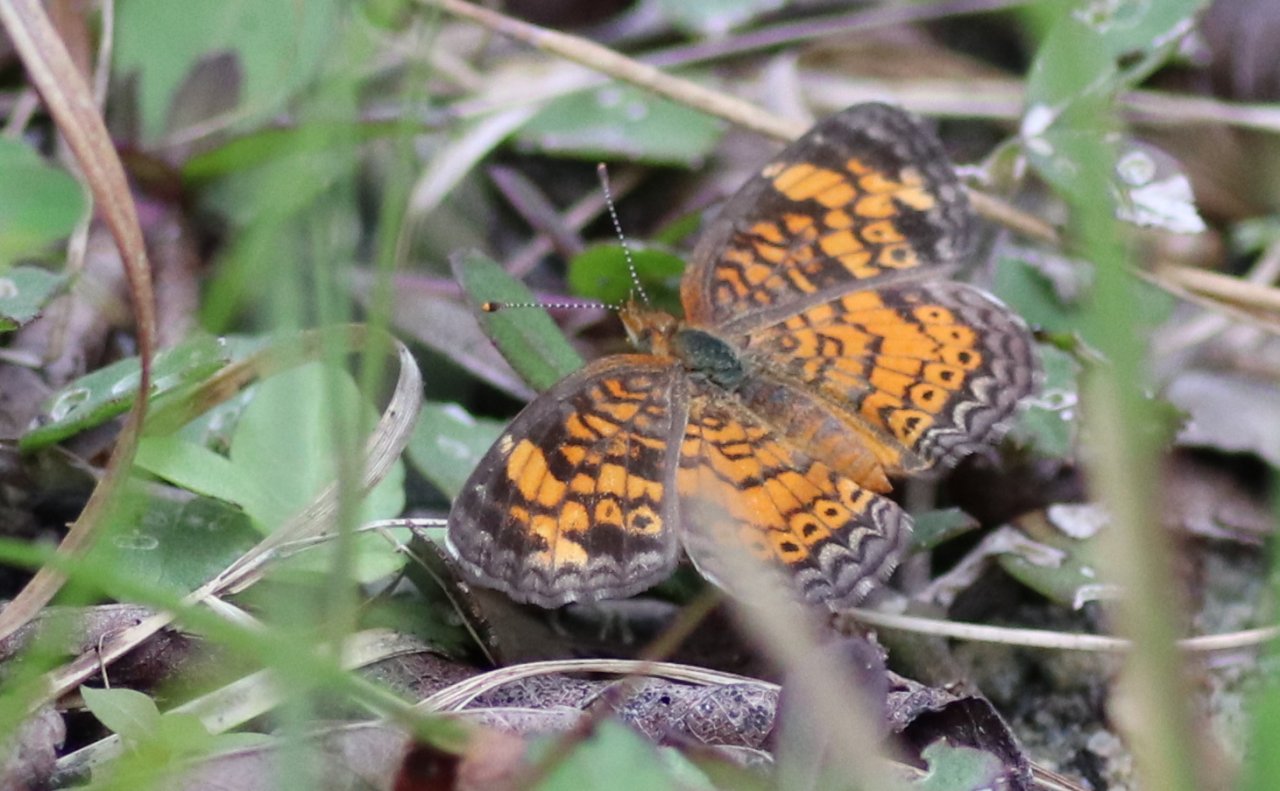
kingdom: Animalia
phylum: Arthropoda
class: Insecta
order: Lepidoptera
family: Nymphalidae
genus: Phyciodes
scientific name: Phyciodes tharos
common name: Pearl Crescent
